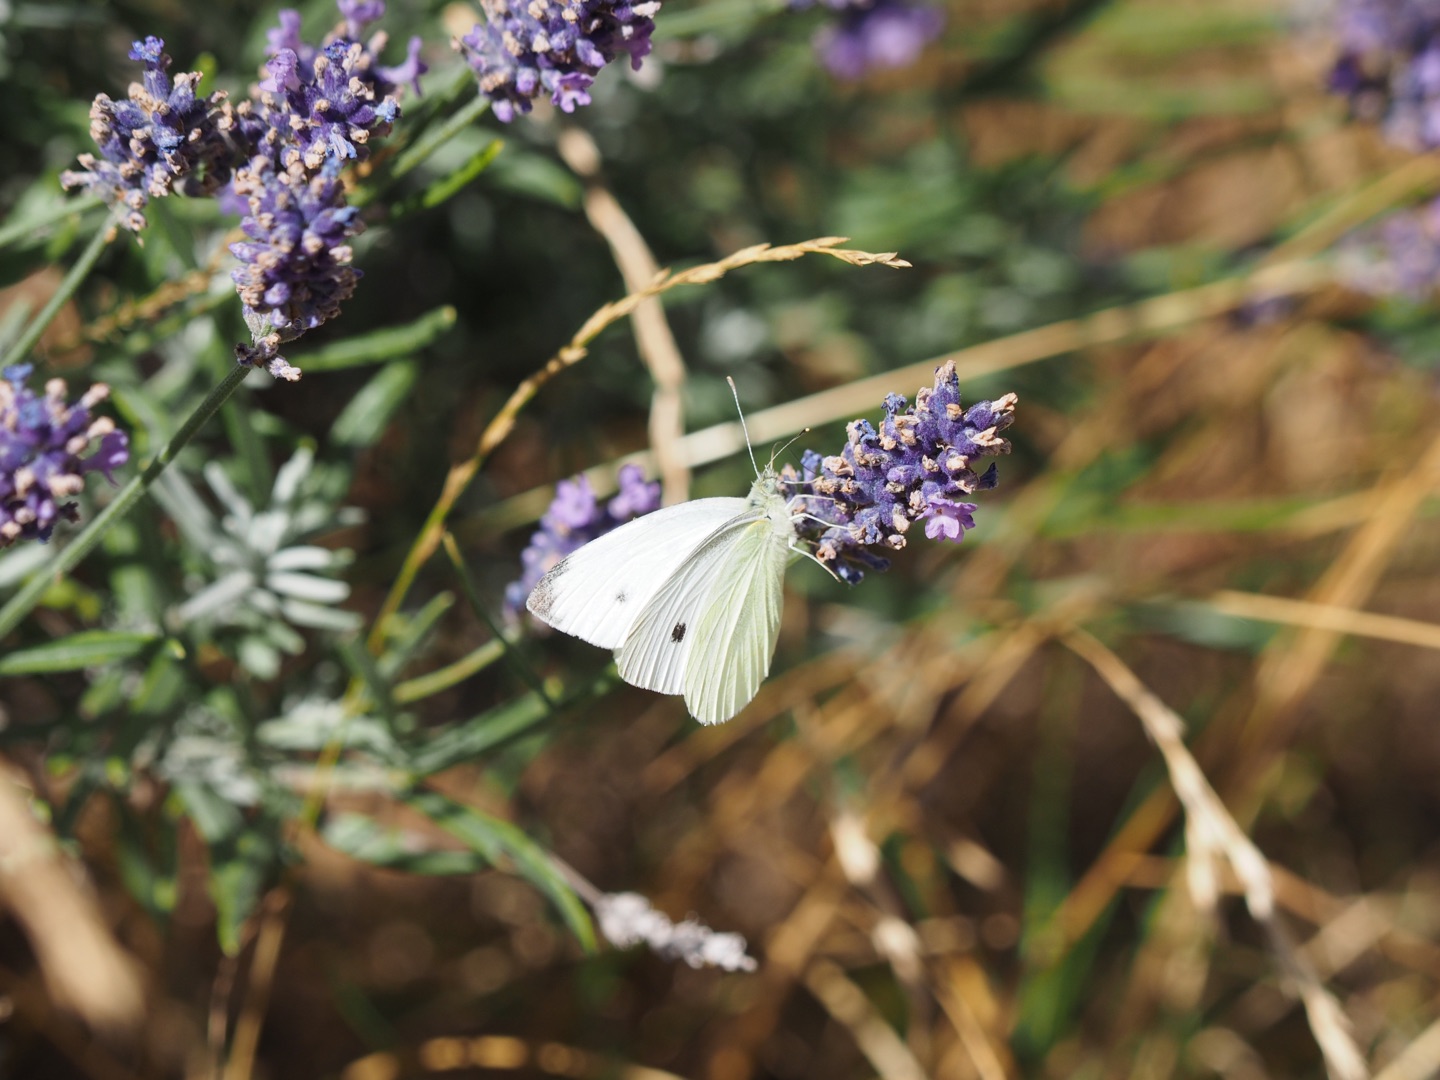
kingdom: Animalia
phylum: Arthropoda
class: Insecta
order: Lepidoptera
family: Pieridae
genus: Pieris
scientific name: Pieris rapae
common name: Lille kålsommerfugl
